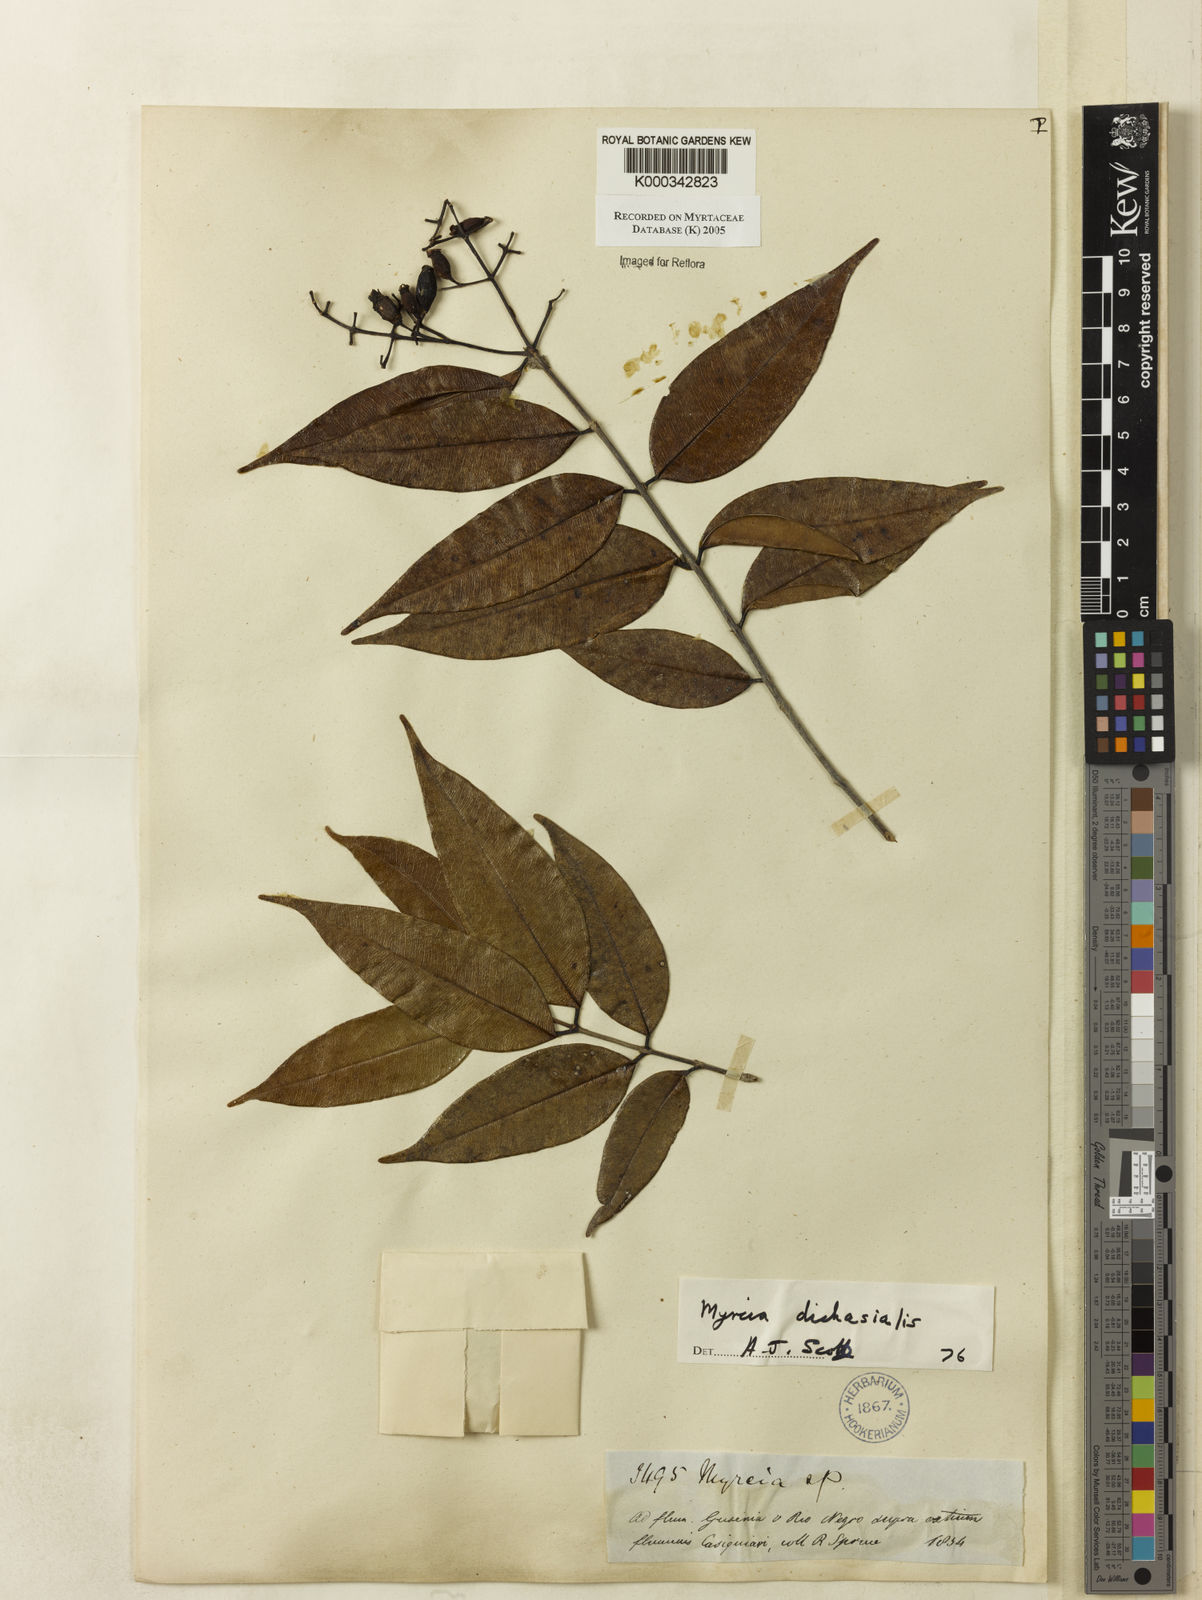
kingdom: Plantae
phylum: Tracheophyta
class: Magnoliopsida
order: Myrtales
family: Myrtaceae
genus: Myrcia
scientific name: Myrcia dichasialis
